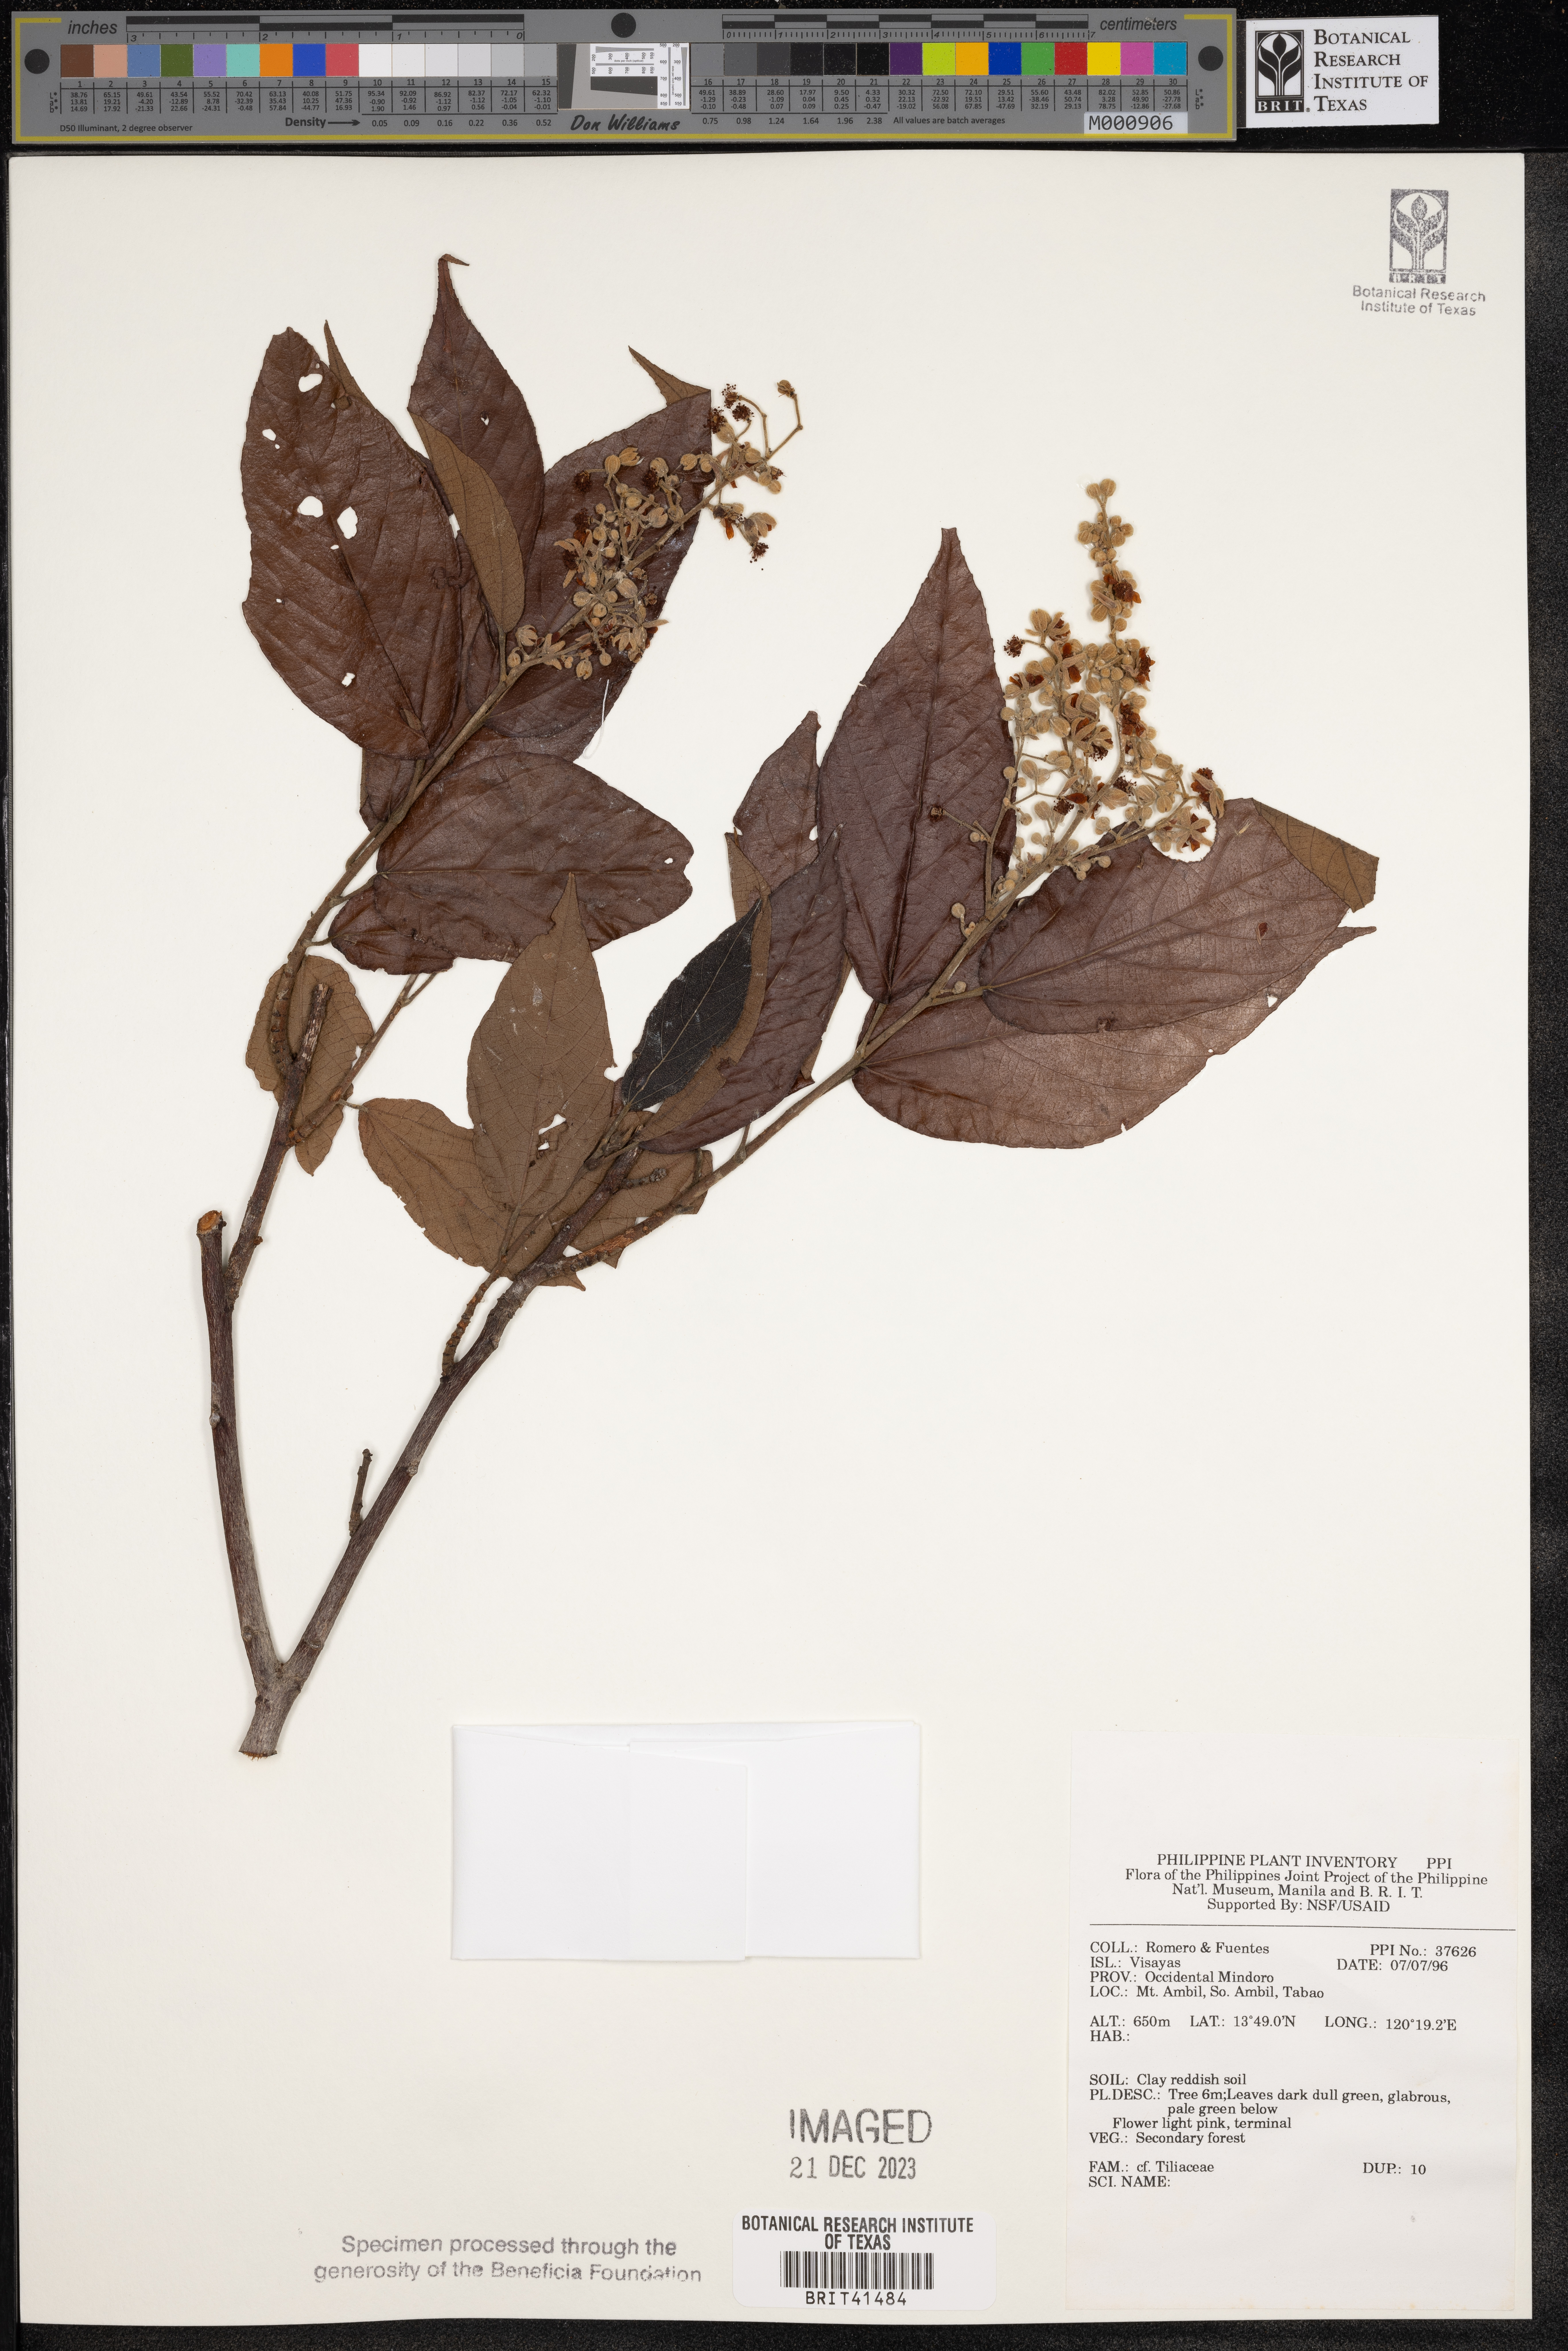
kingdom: Plantae
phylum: Tracheophyta
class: Magnoliopsida
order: Malvales
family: Tiliaceae
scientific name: Tiliaceae
